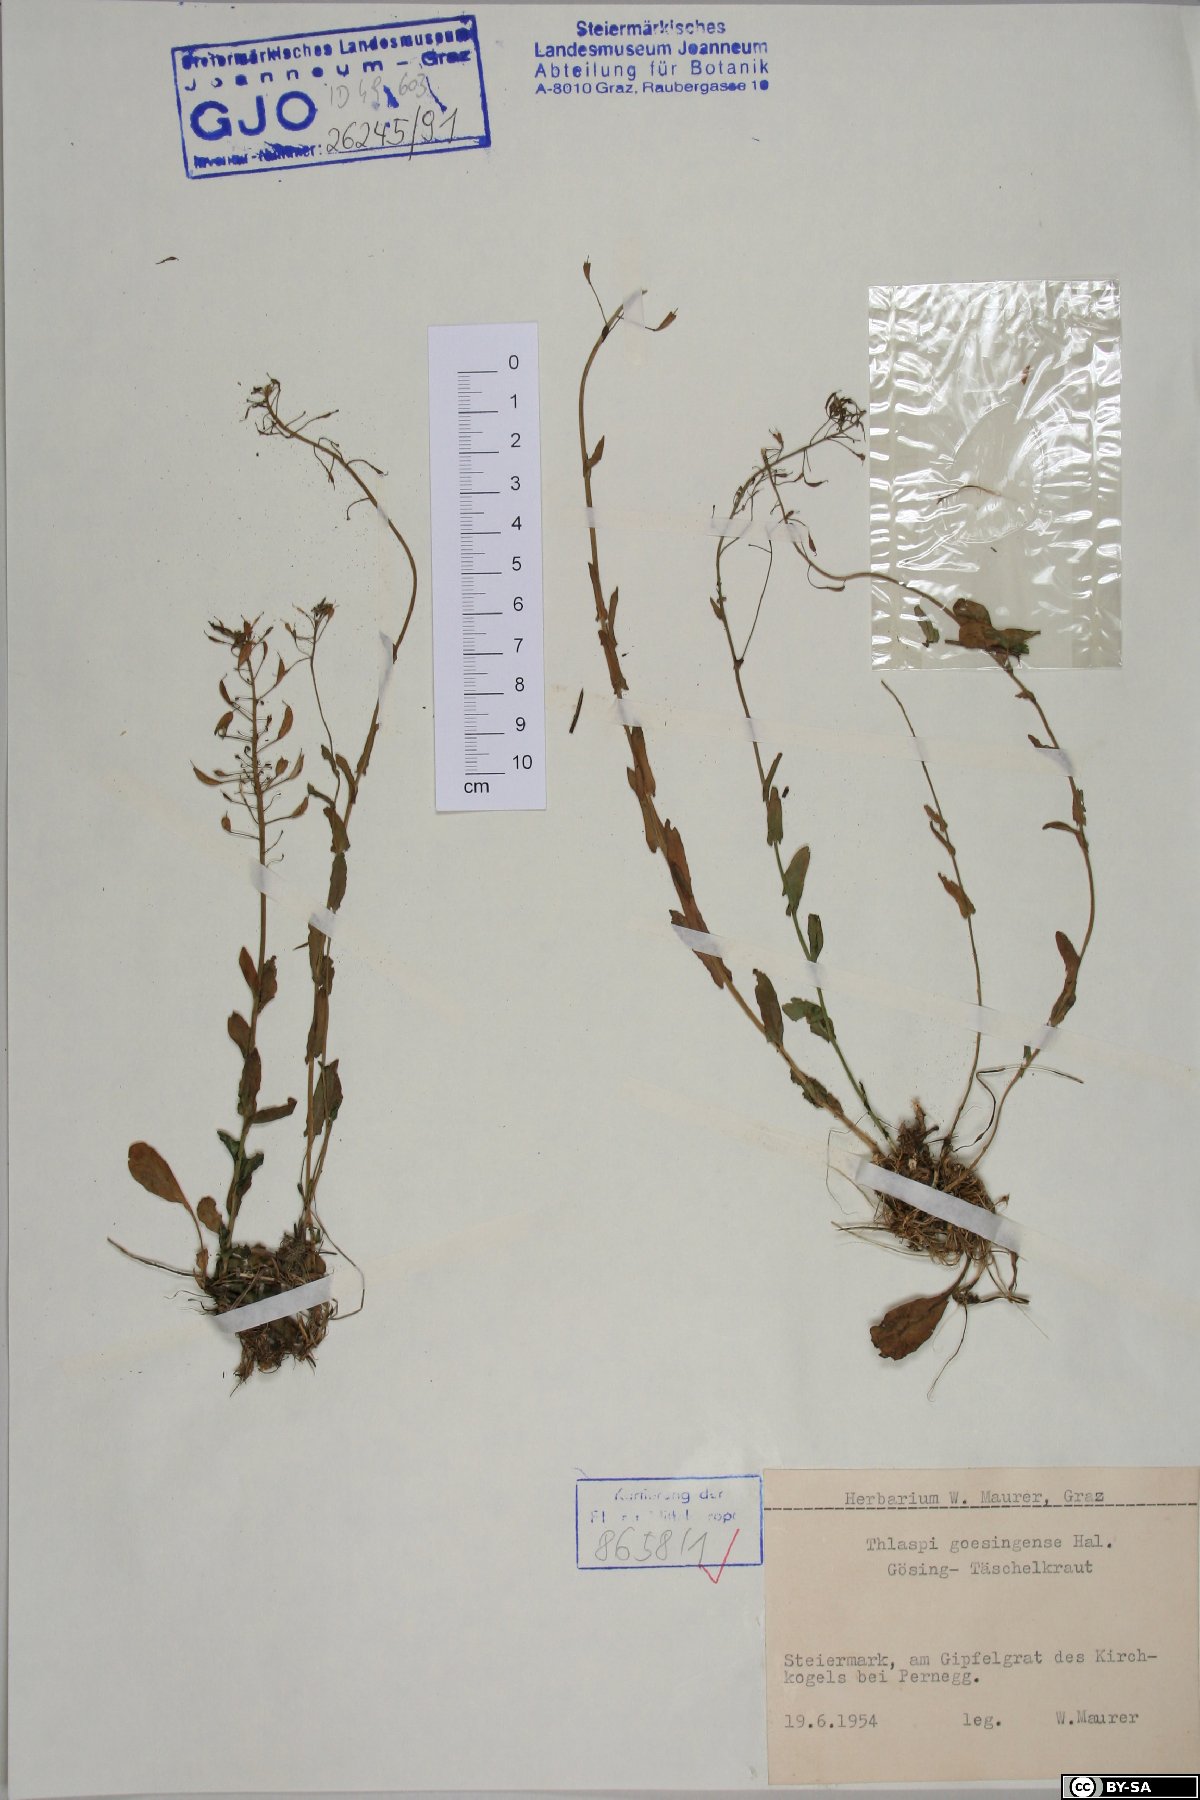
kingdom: Plantae
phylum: Tracheophyta
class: Magnoliopsida
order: Brassicales
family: Brassicaceae
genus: Noccaea
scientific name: Noccaea goesingensis
